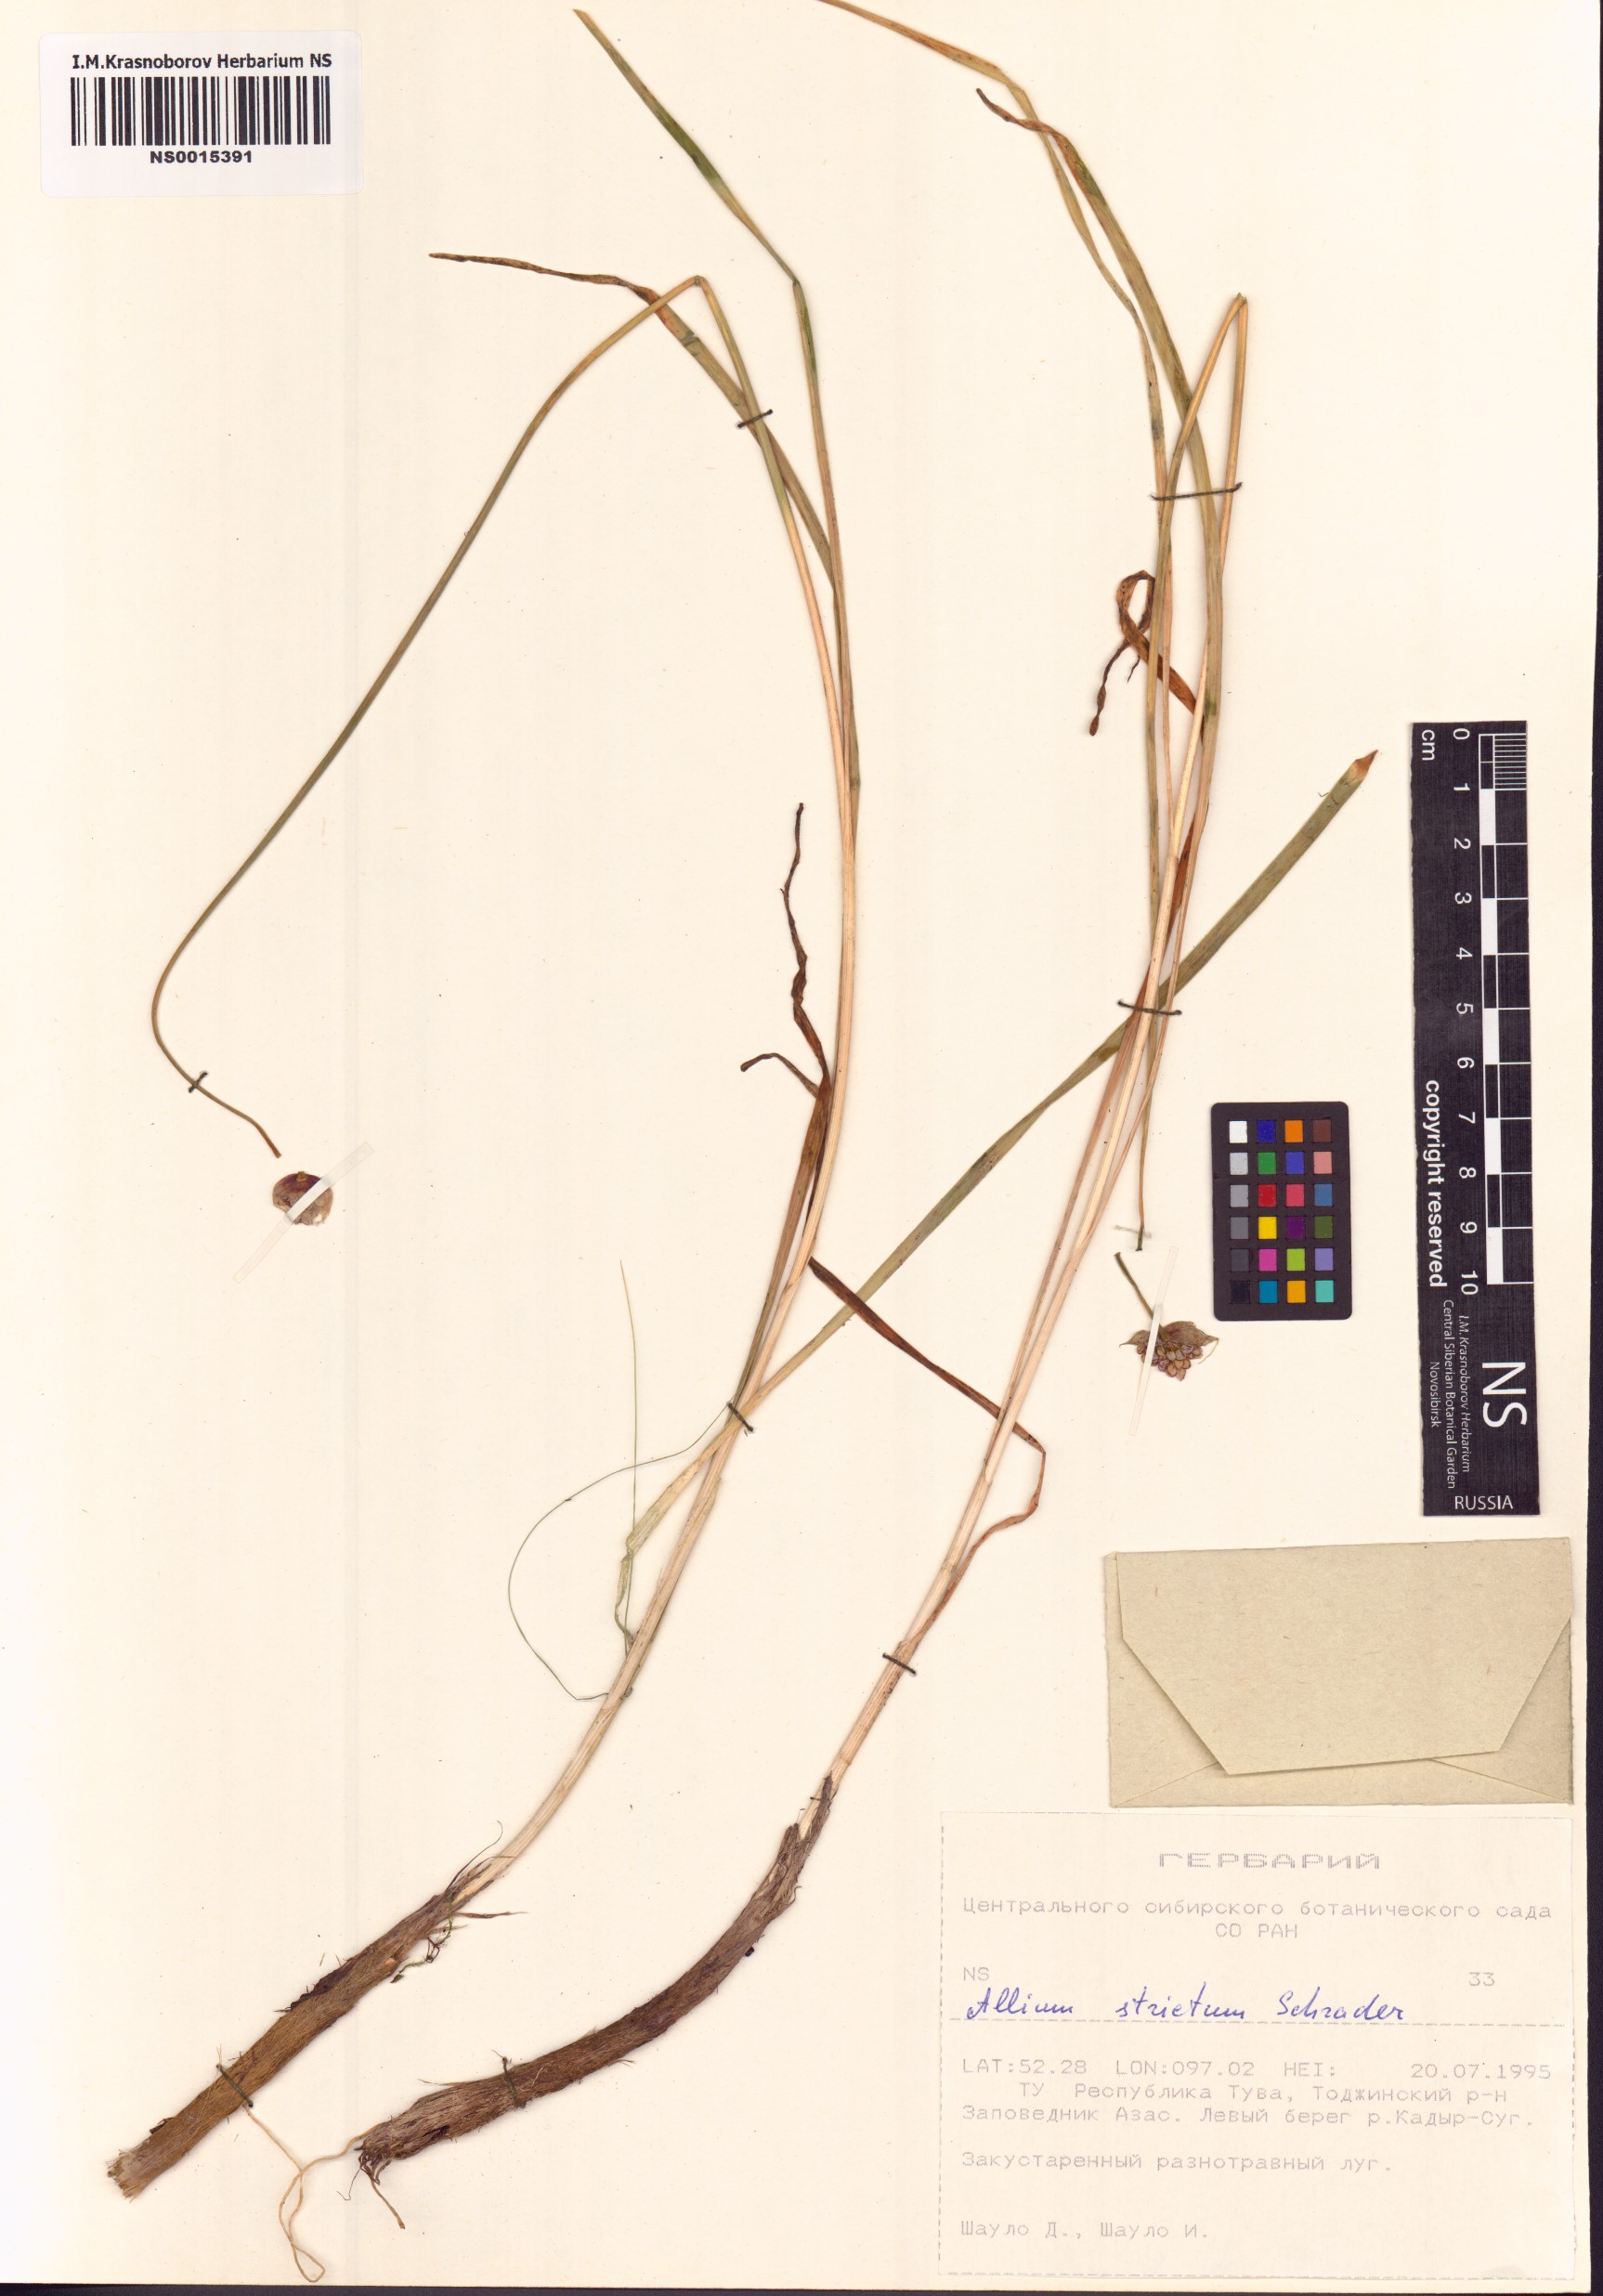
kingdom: Plantae
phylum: Tracheophyta
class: Liliopsida
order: Asparagales
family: Amaryllidaceae
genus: Allium
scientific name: Allium strictum
